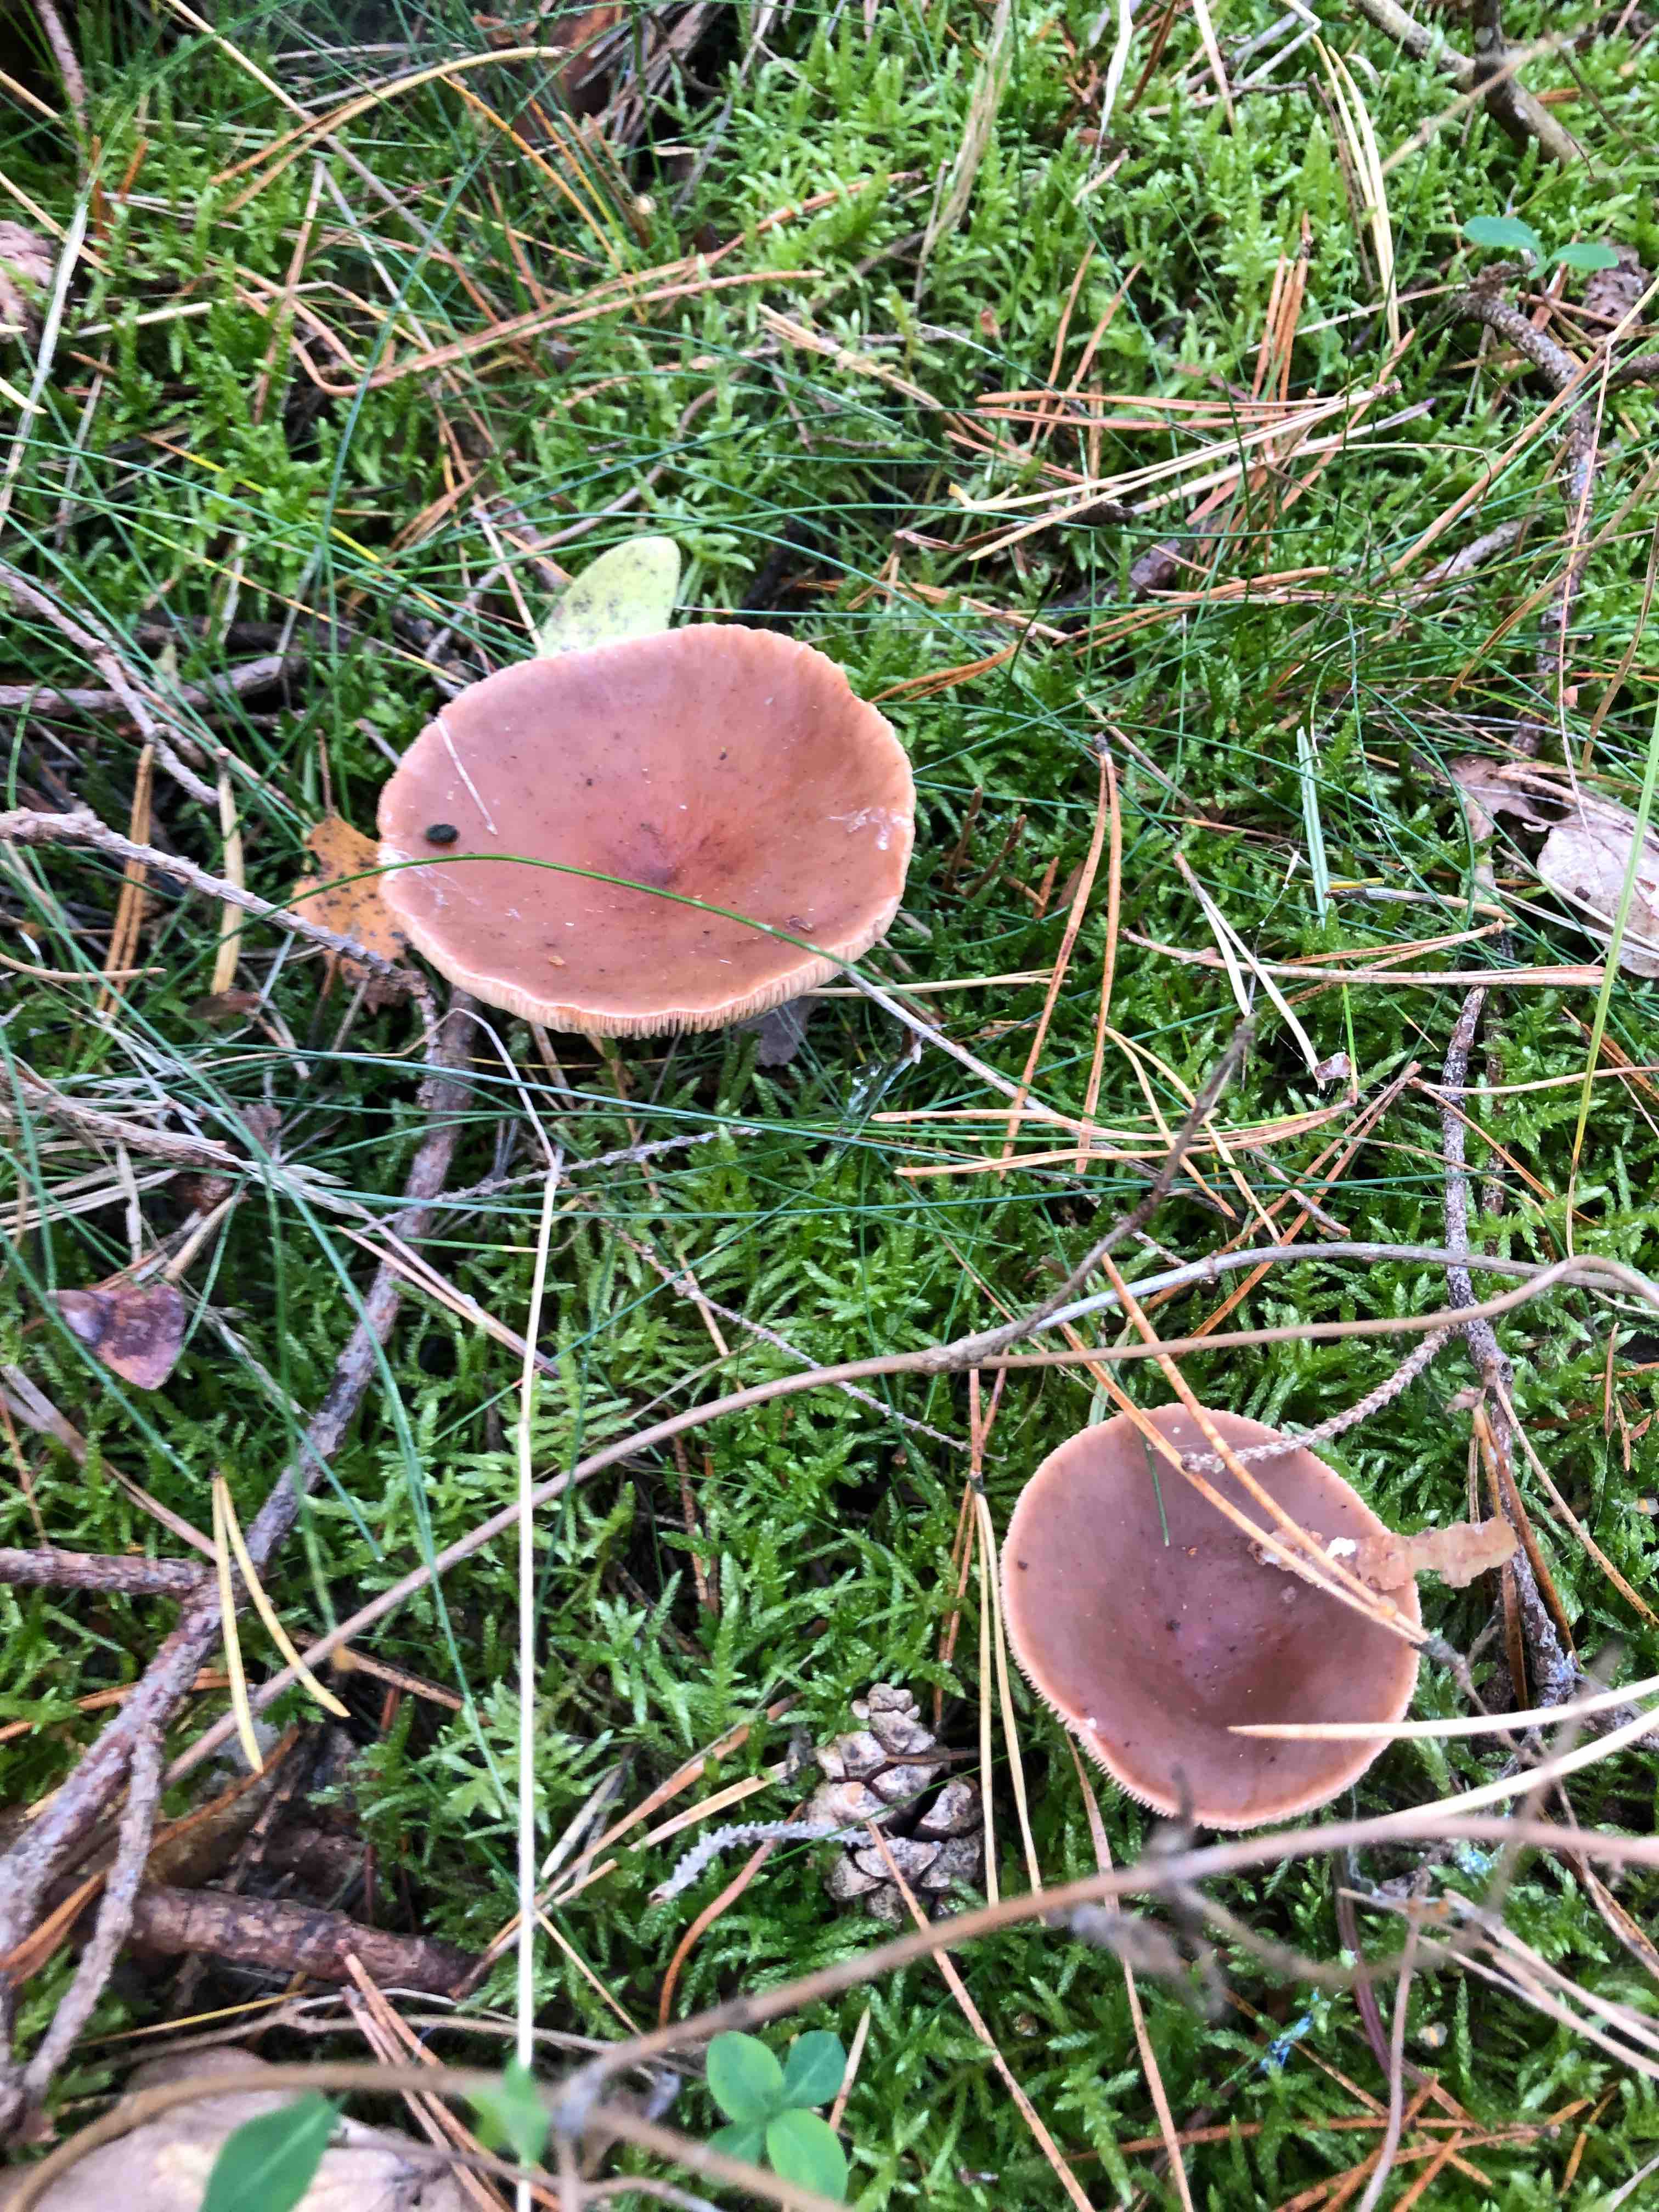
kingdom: Fungi
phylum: Basidiomycota
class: Agaricomycetes
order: Russulales
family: Russulaceae
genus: Lactarius
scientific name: Lactarius
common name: mælkehat
